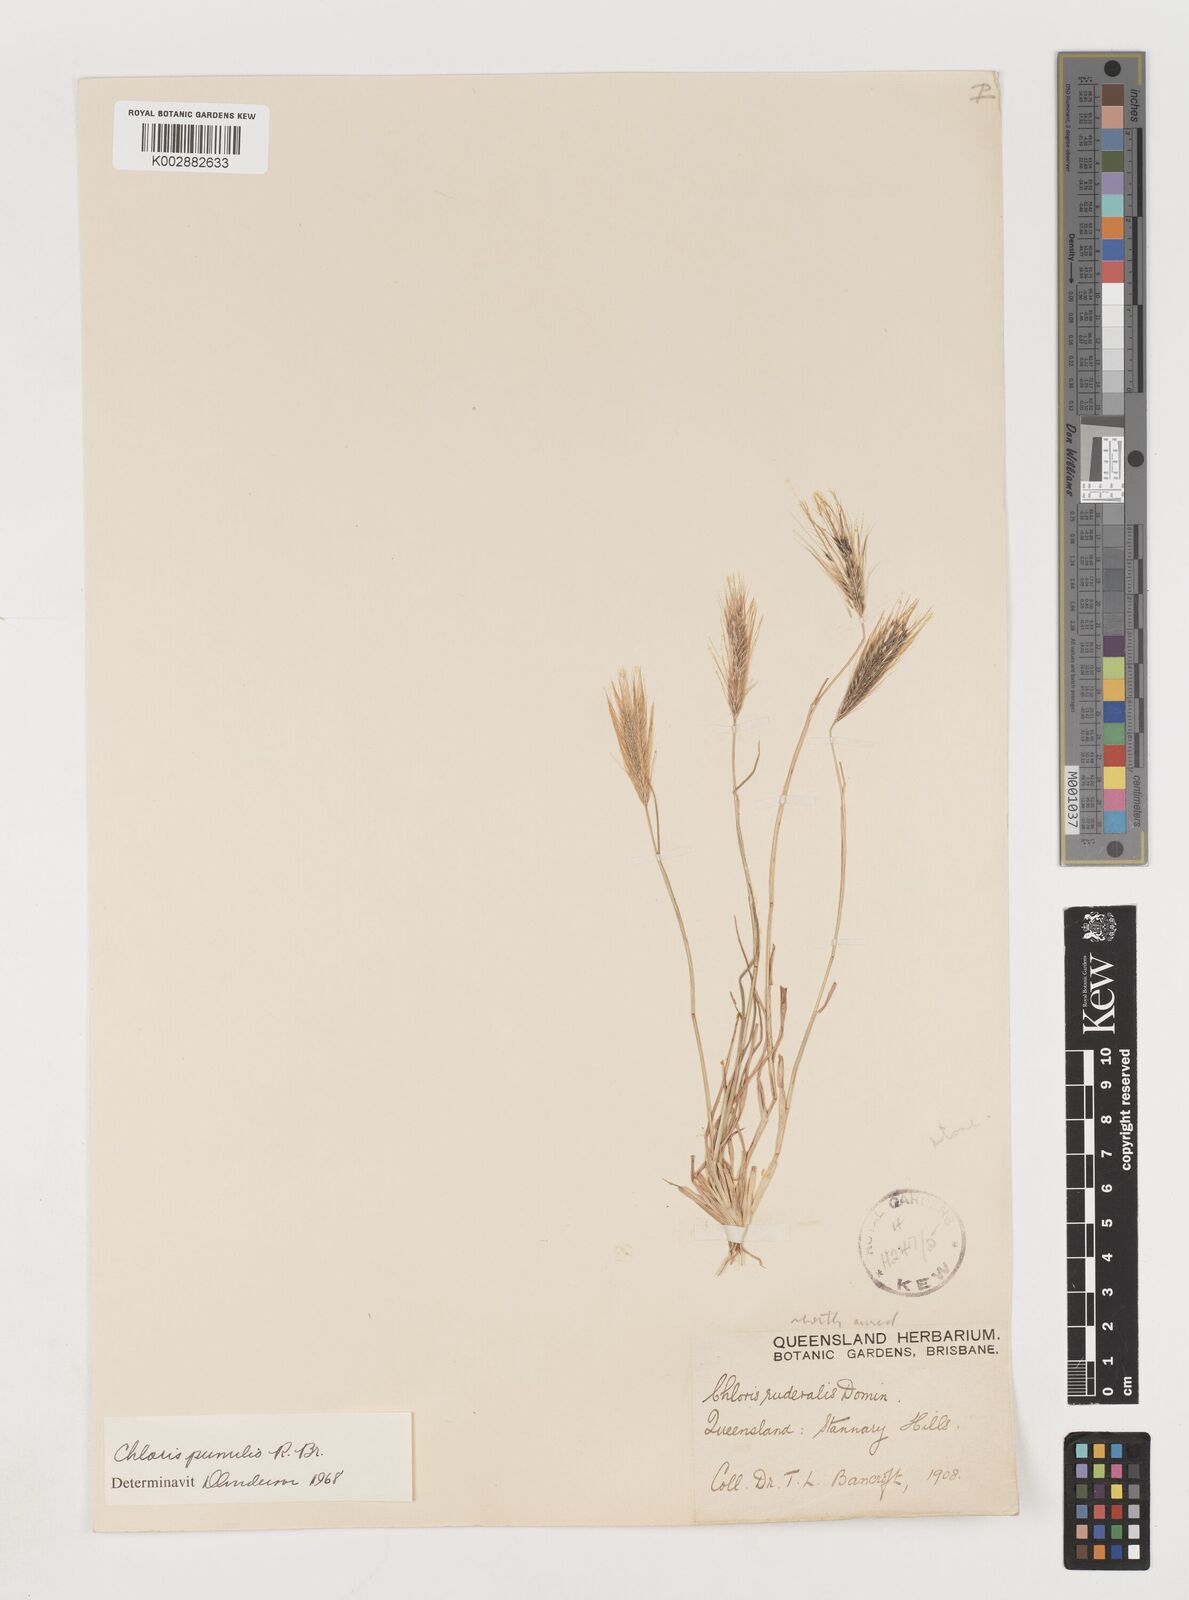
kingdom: Plantae
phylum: Tracheophyta
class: Liliopsida
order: Poales
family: Poaceae
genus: Chloris
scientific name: Chloris pumilio
